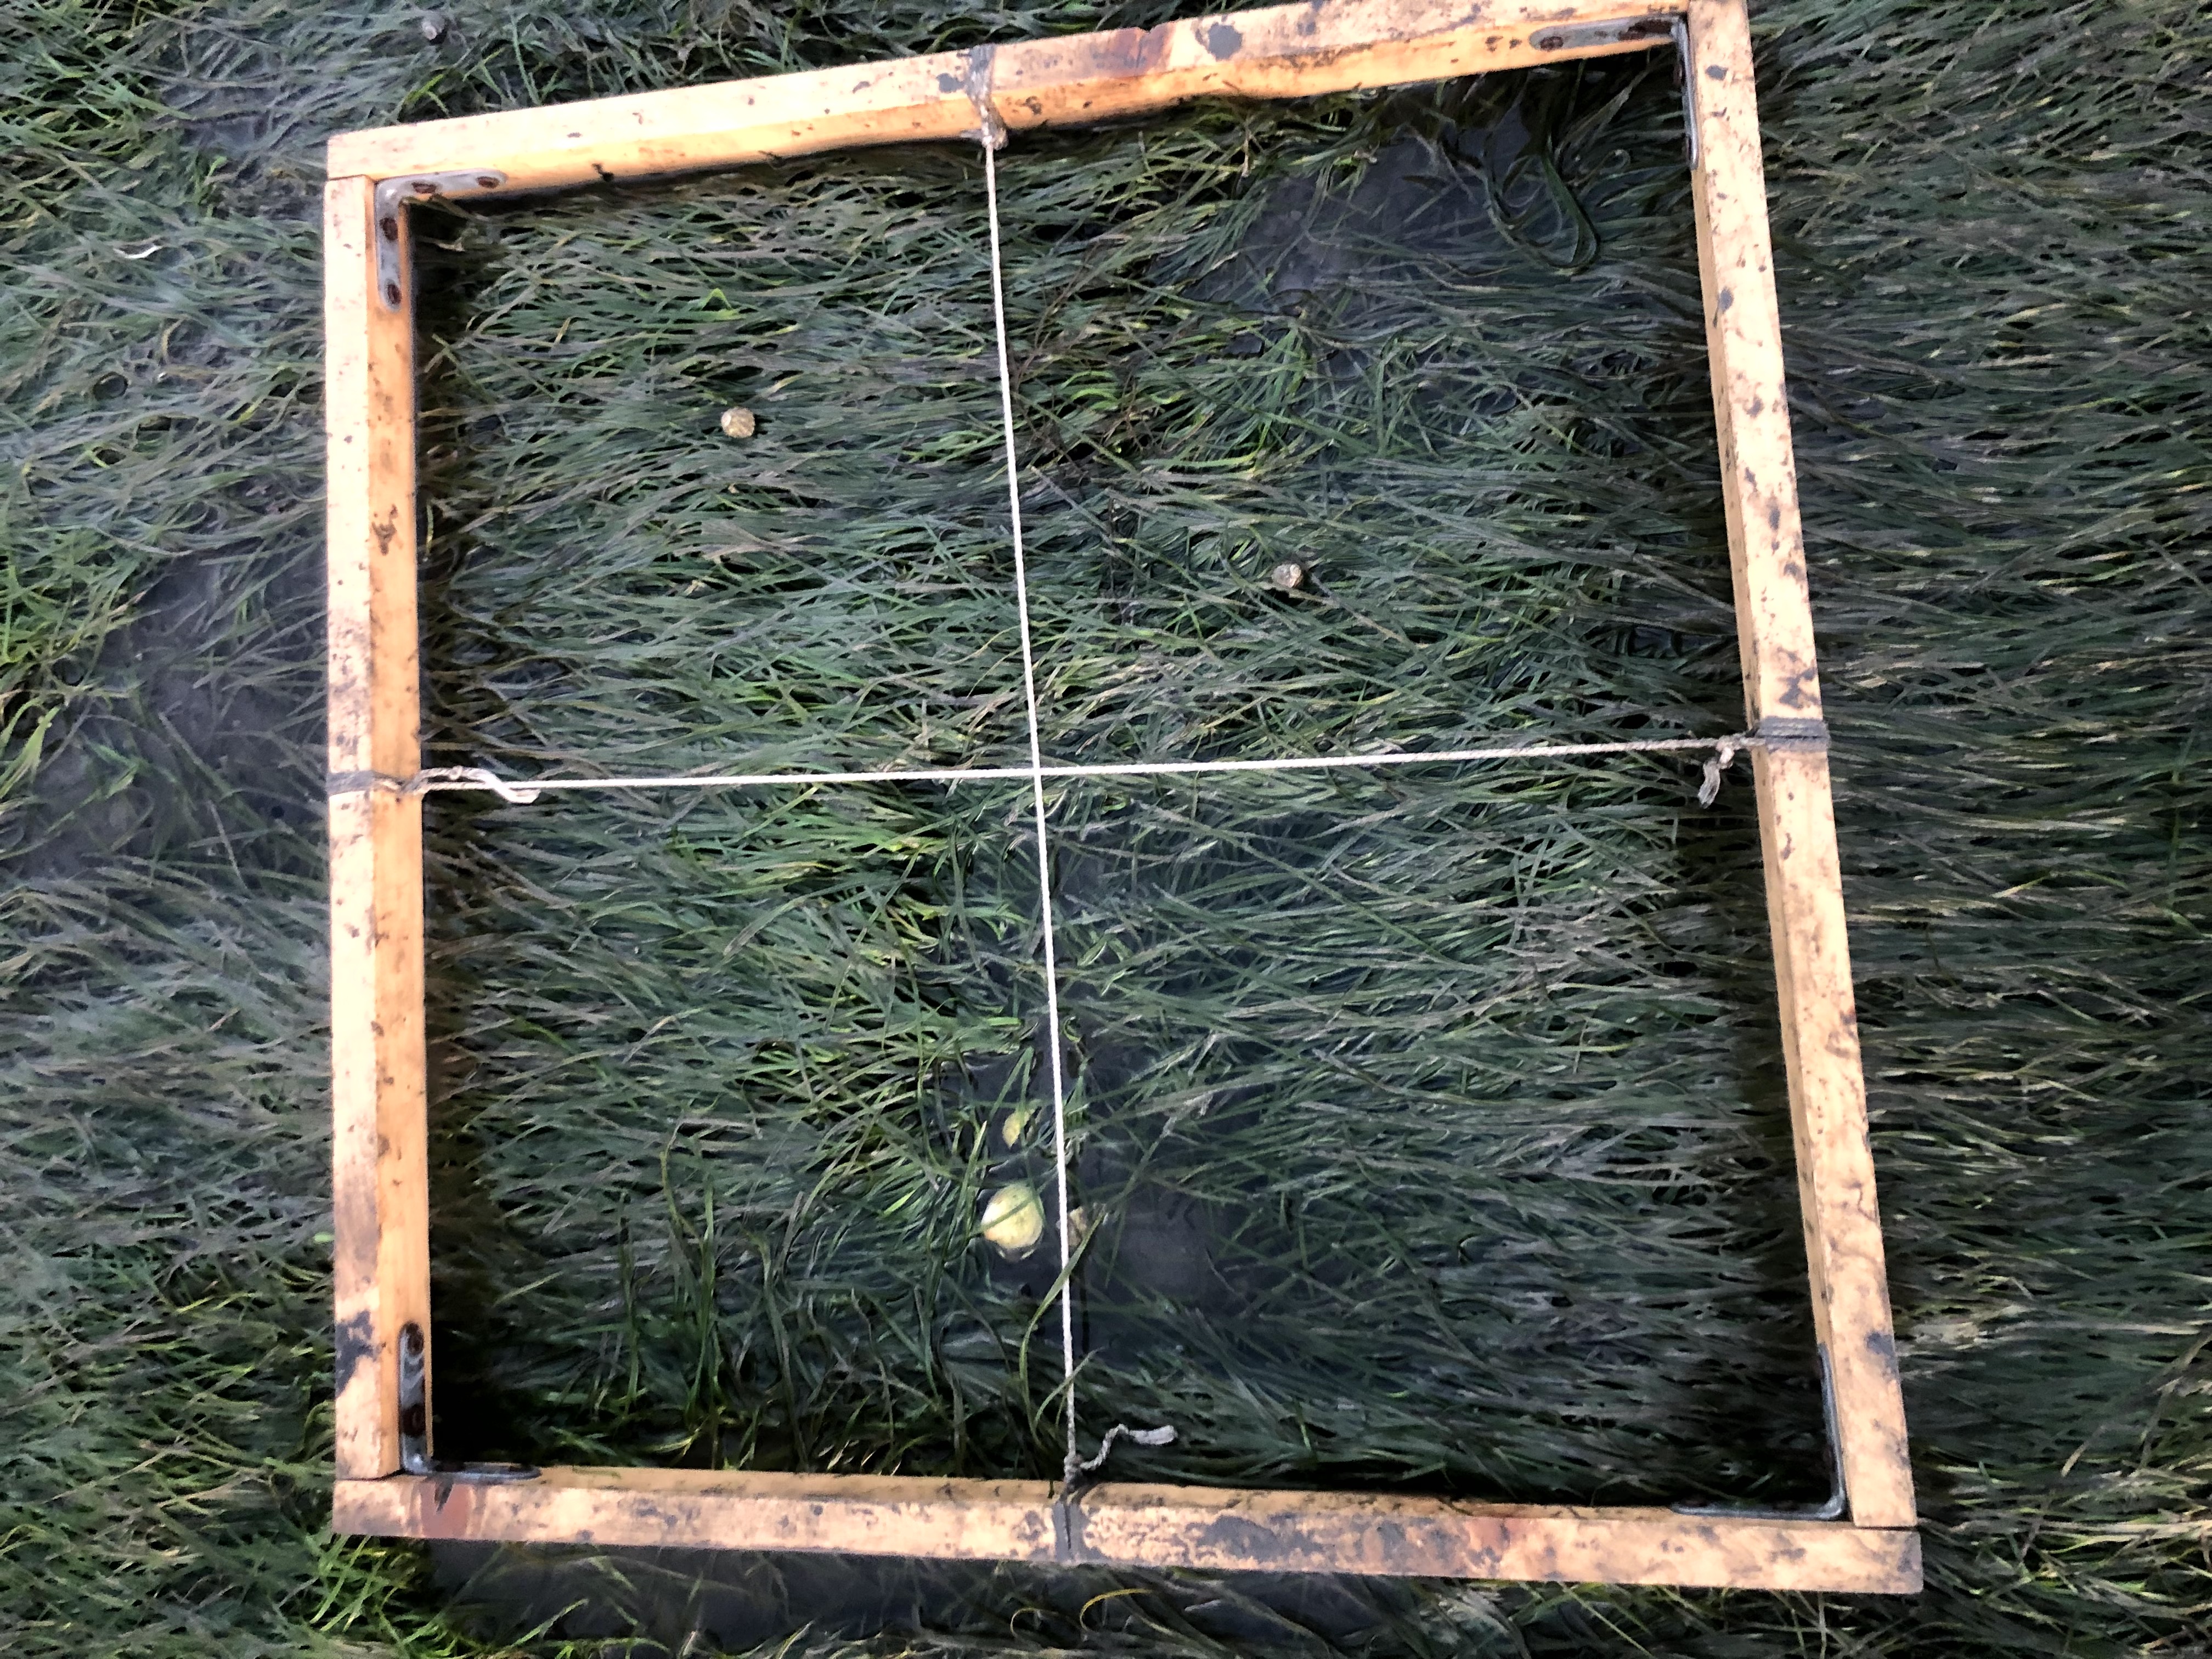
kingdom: Plantae
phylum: Tracheophyta
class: Liliopsida
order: Alismatales
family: Zosteraceae
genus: Zostera
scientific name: Zostera noltii
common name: Dwarf eelgrass
